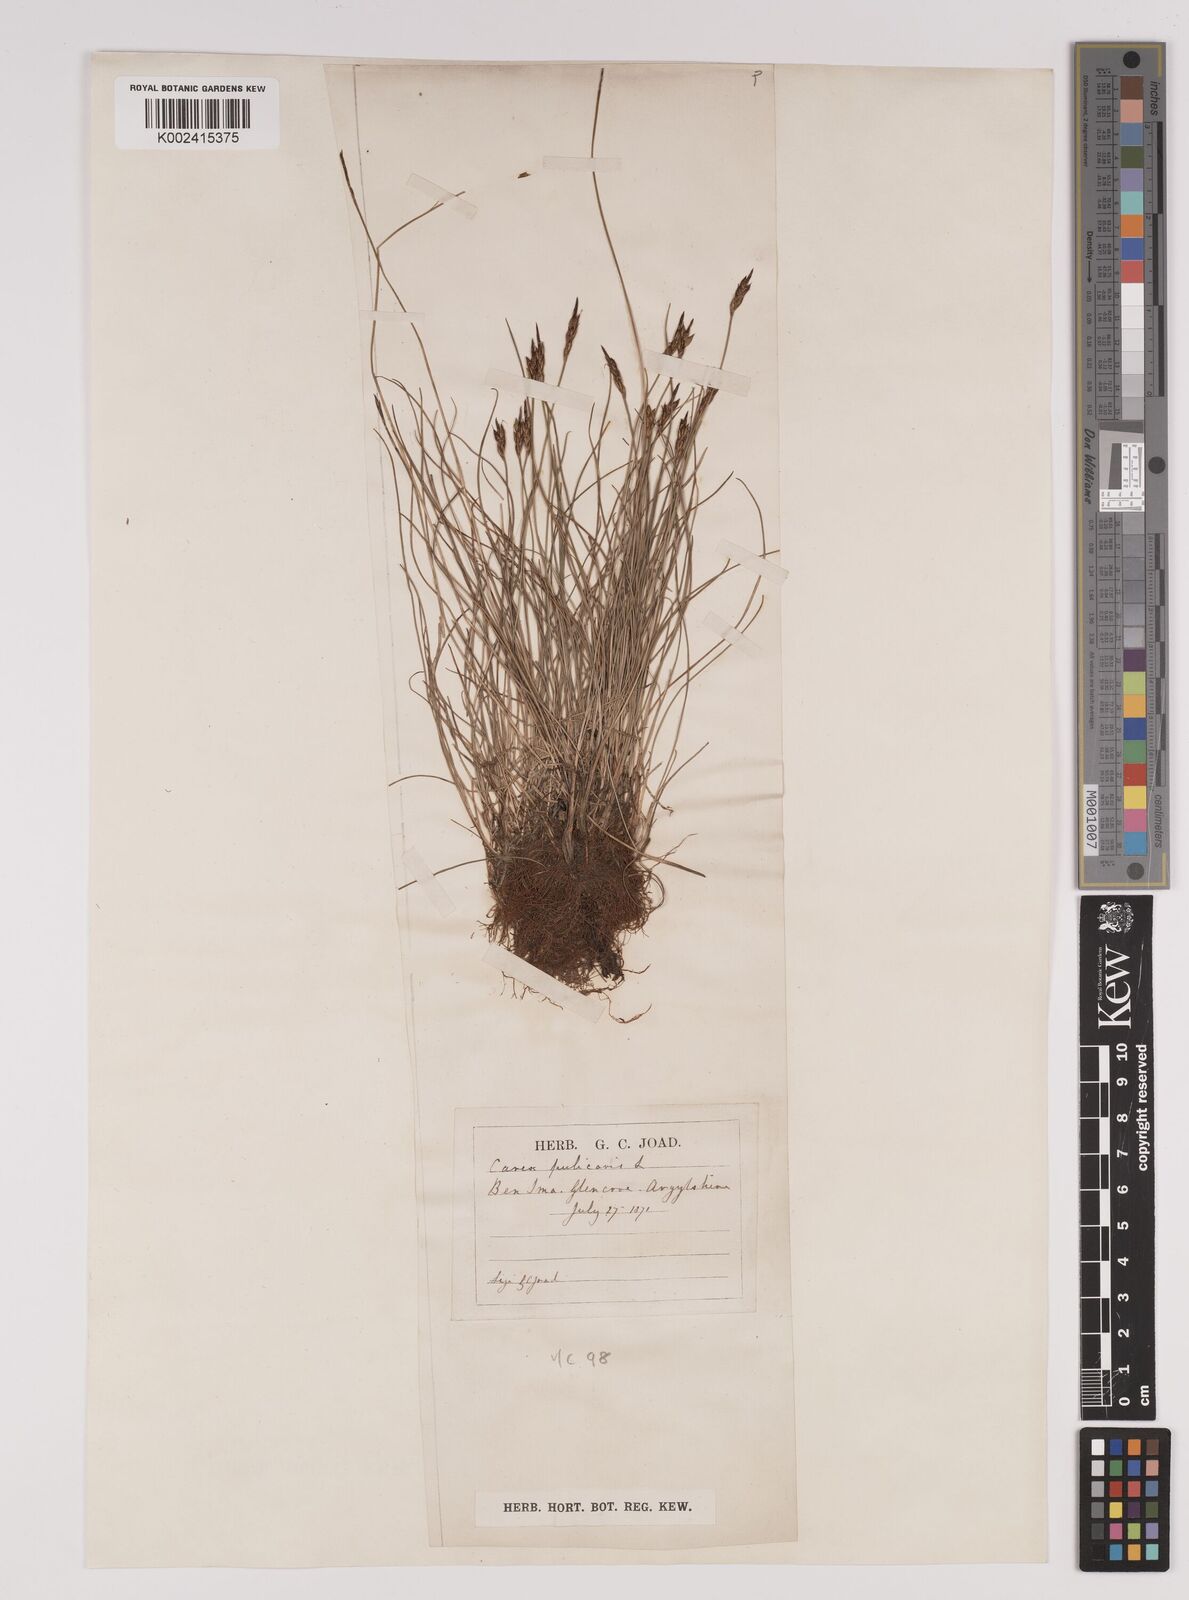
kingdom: Plantae
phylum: Tracheophyta
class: Liliopsida
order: Poales
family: Cyperaceae
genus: Carex
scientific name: Carex pulicaris
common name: Flea sedge
